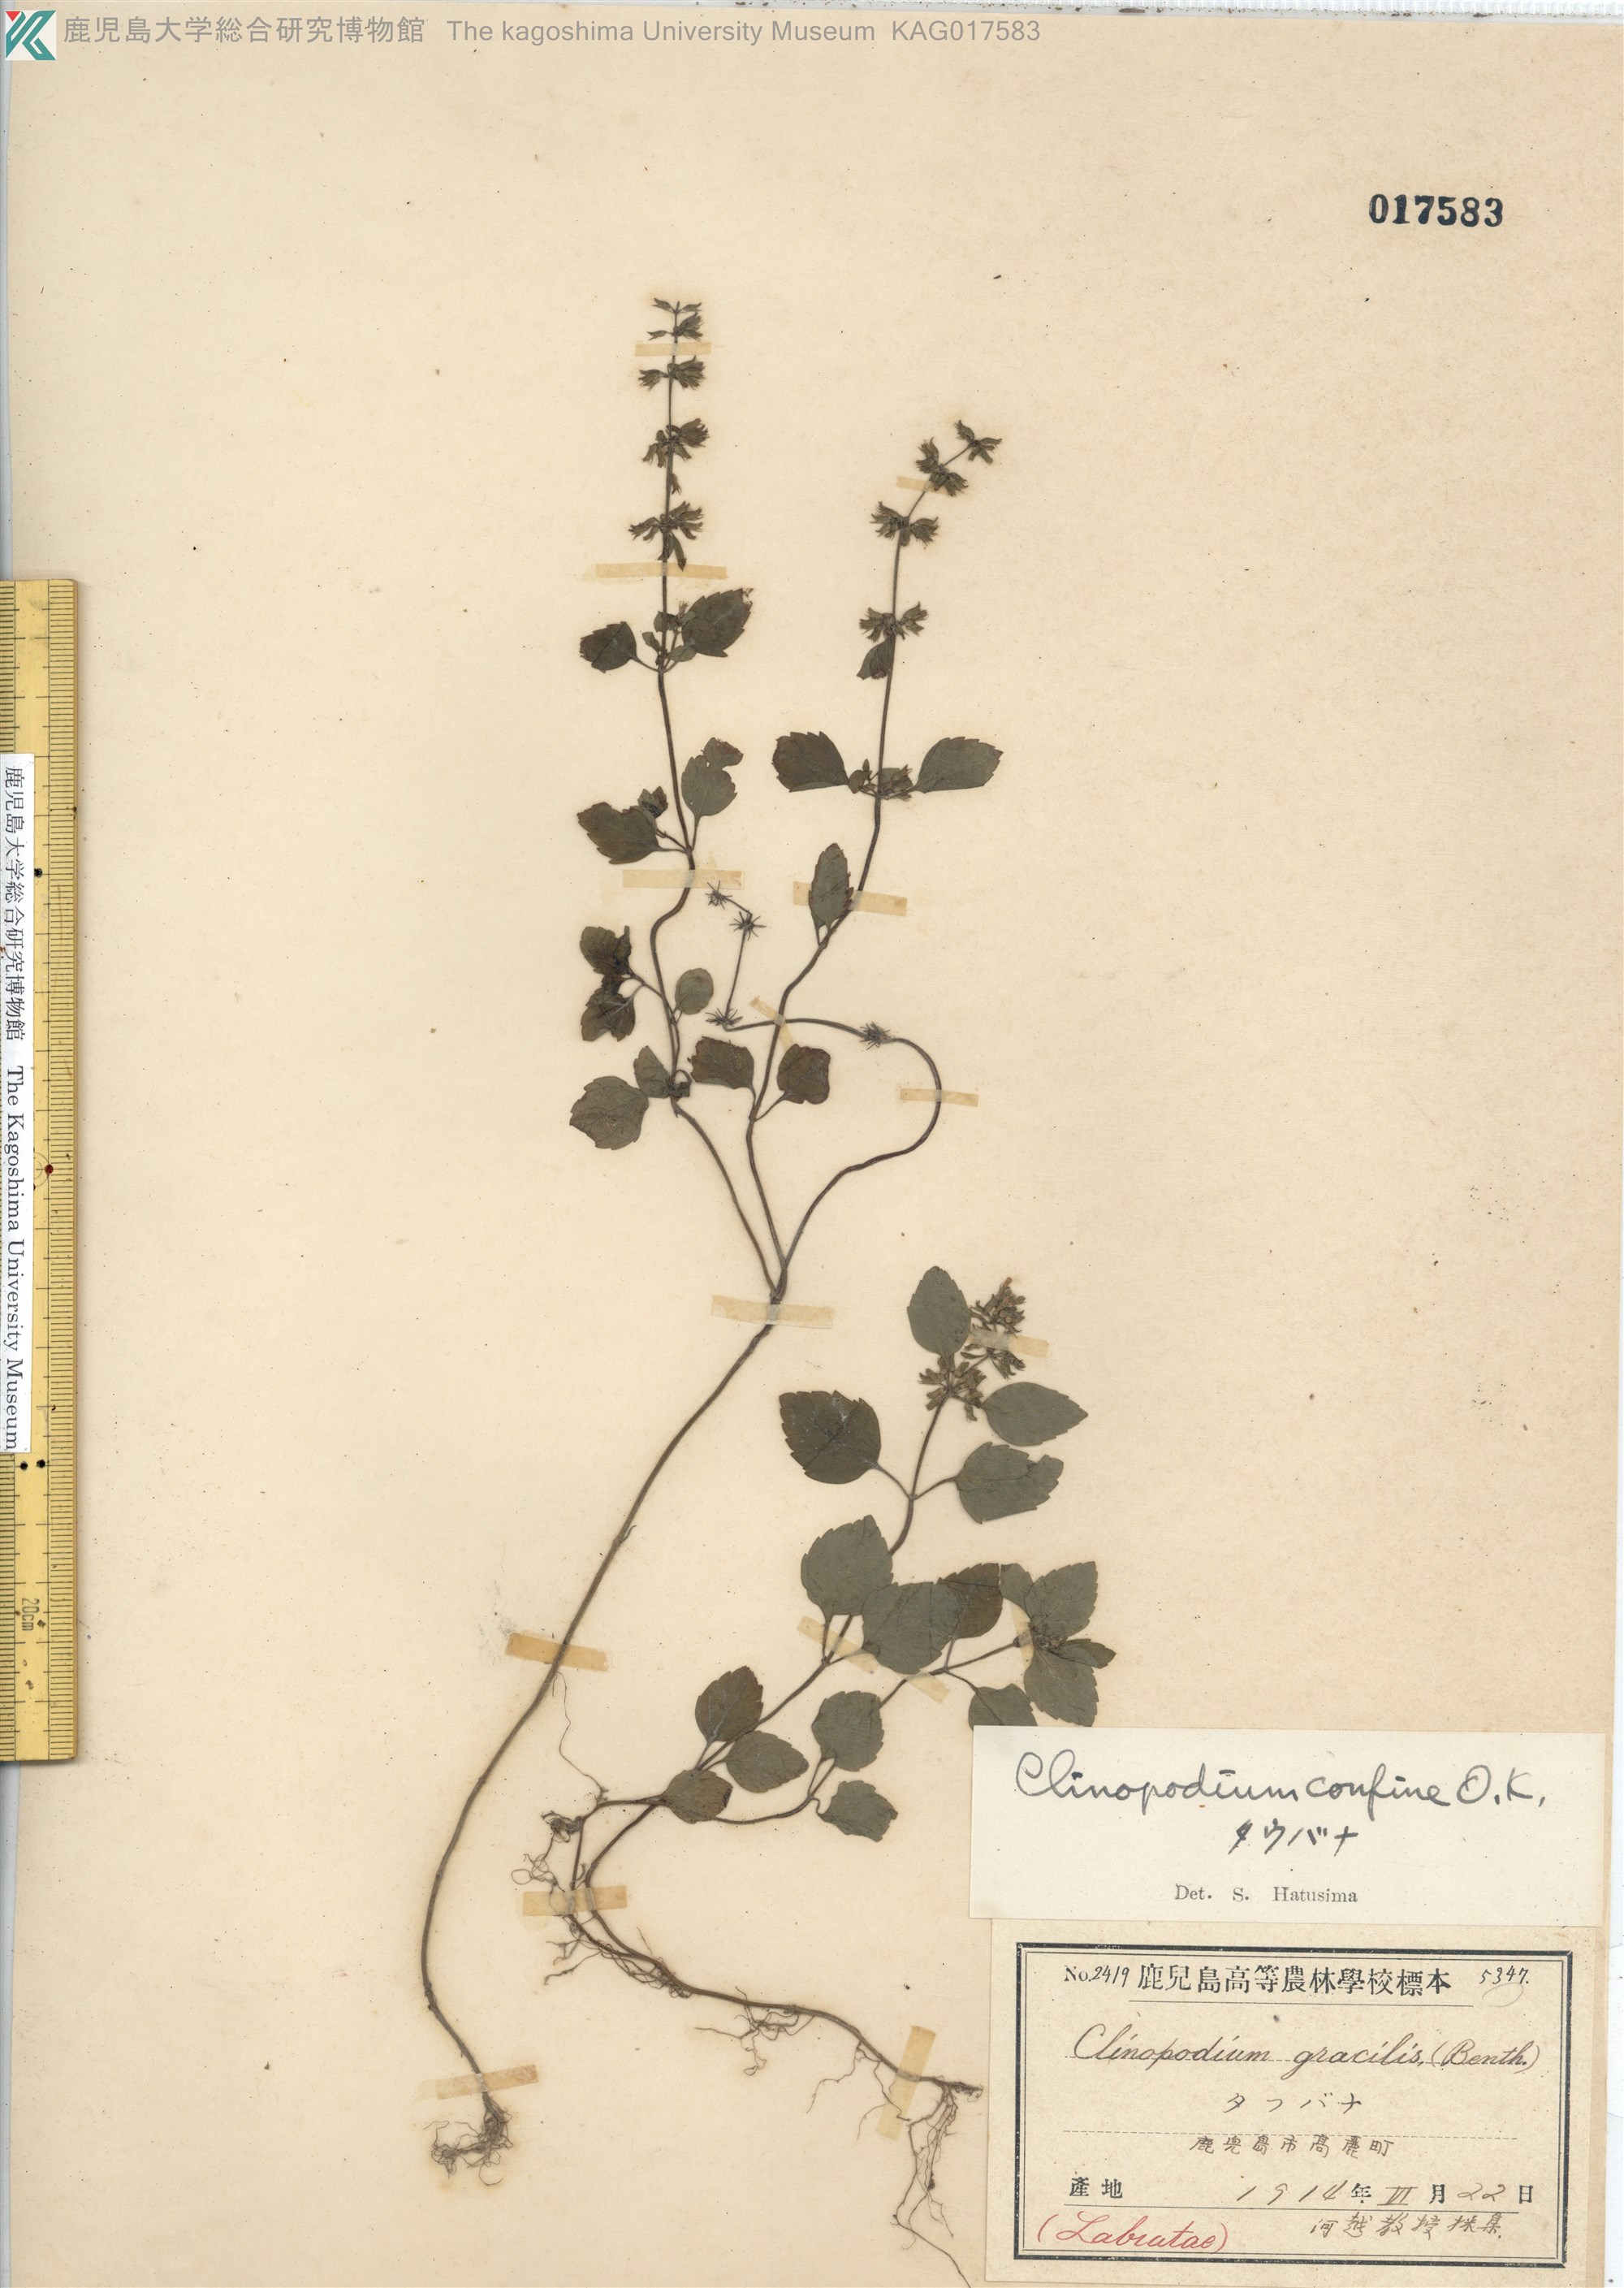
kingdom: Plantae
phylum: Tracheophyta
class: Magnoliopsida
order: Lamiales
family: Lamiaceae
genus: Clinopodium
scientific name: Clinopodium gracile
